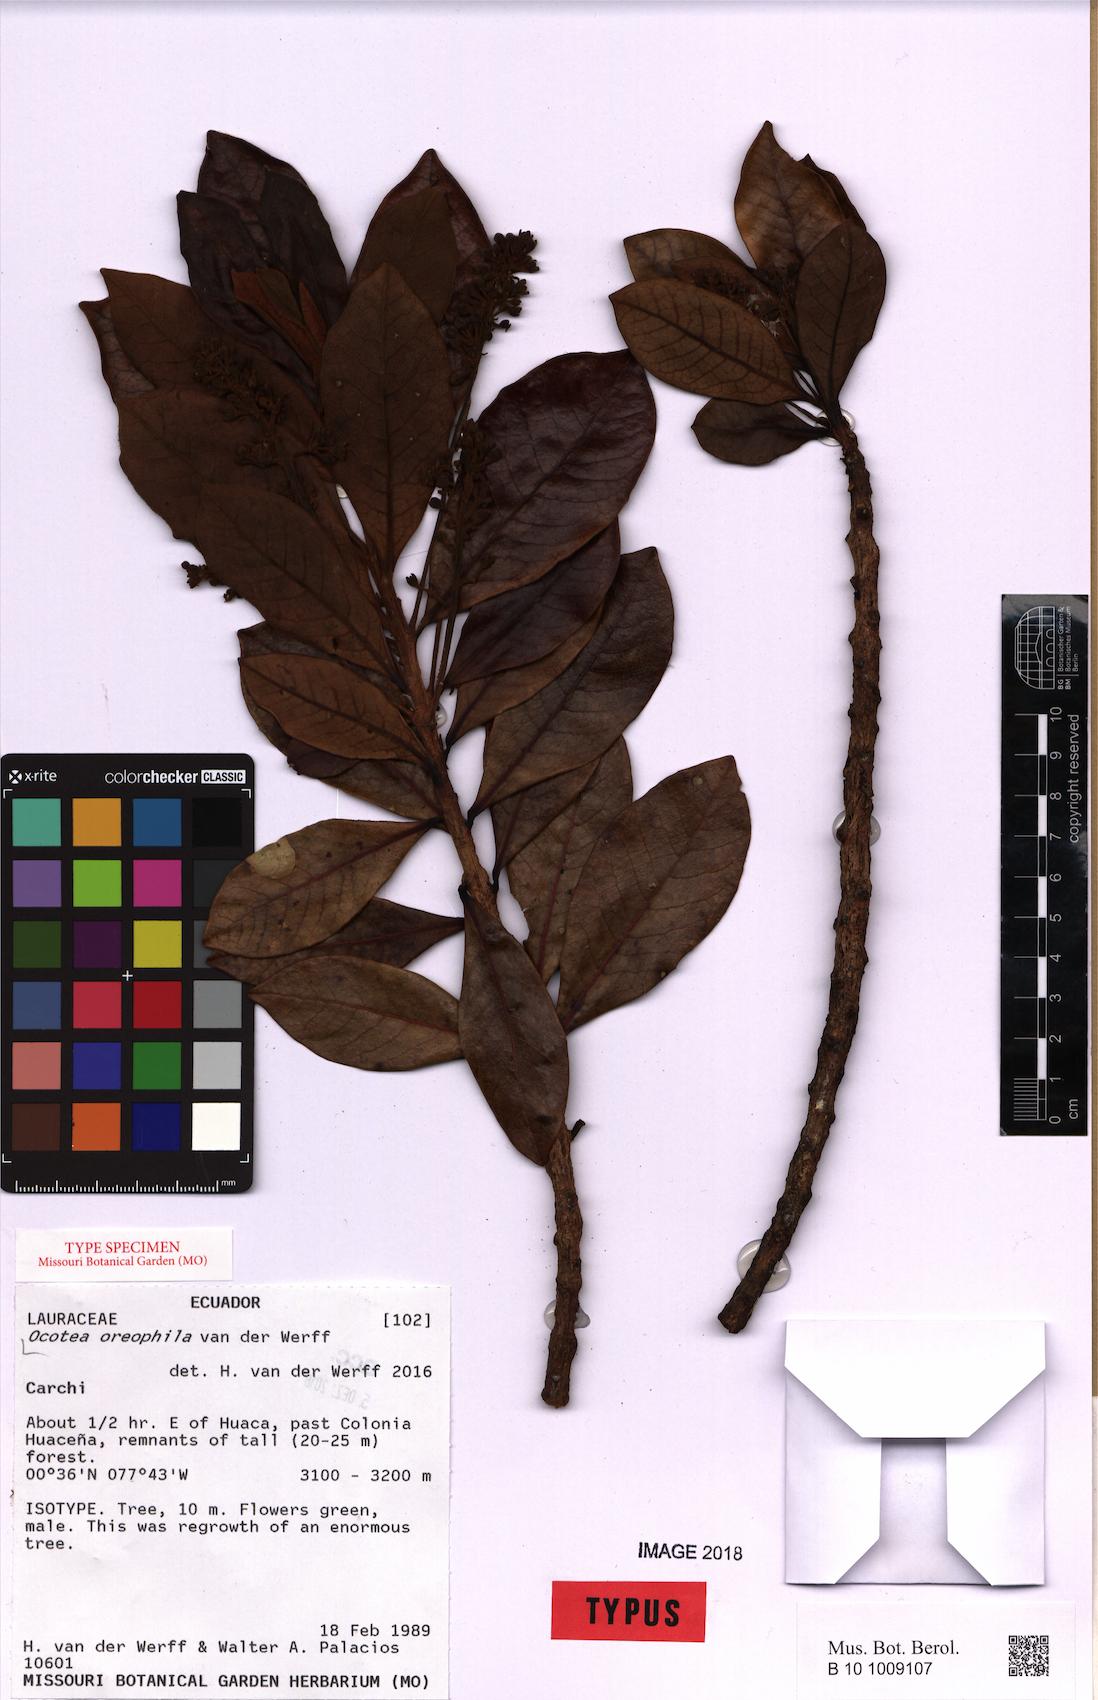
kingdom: Plantae
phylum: Tracheophyta
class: Magnoliopsida
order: Laurales
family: Lauraceae
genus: Andea
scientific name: Andea oreophila
